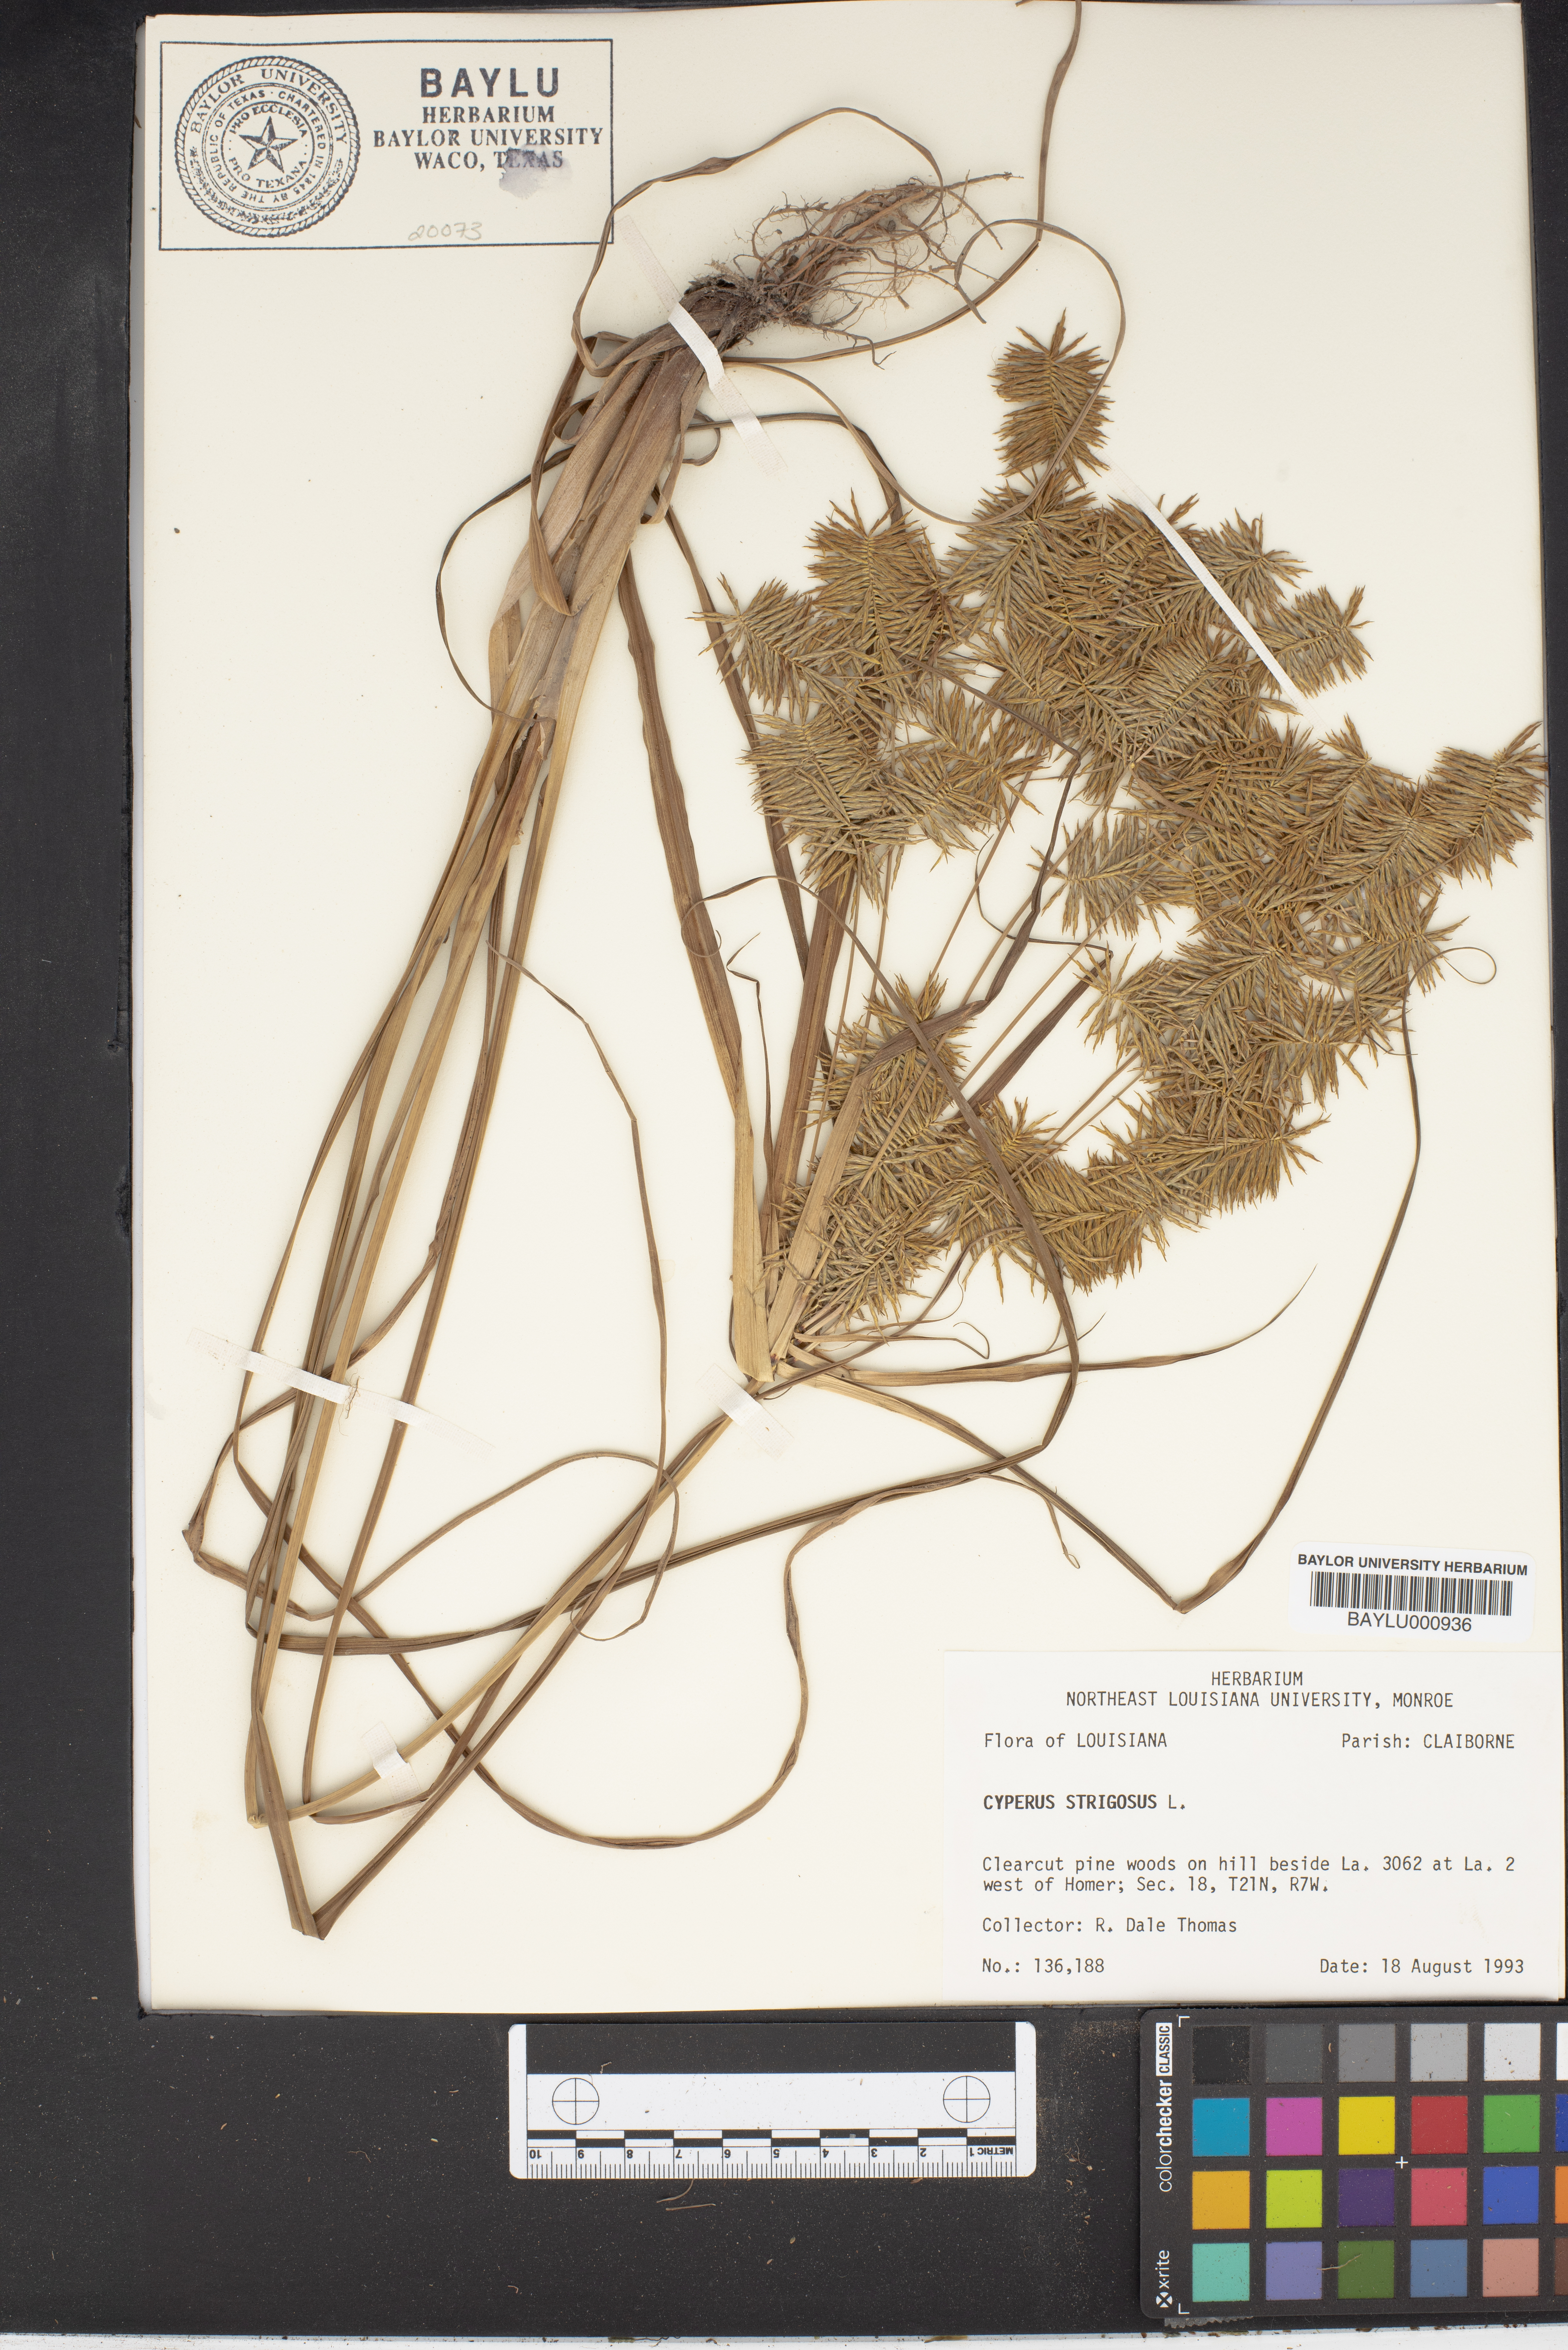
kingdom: Plantae
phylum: Tracheophyta
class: Liliopsida
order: Poales
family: Cyperaceae
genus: Cyperus
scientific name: Cyperus strigosus
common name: False nutsedge
